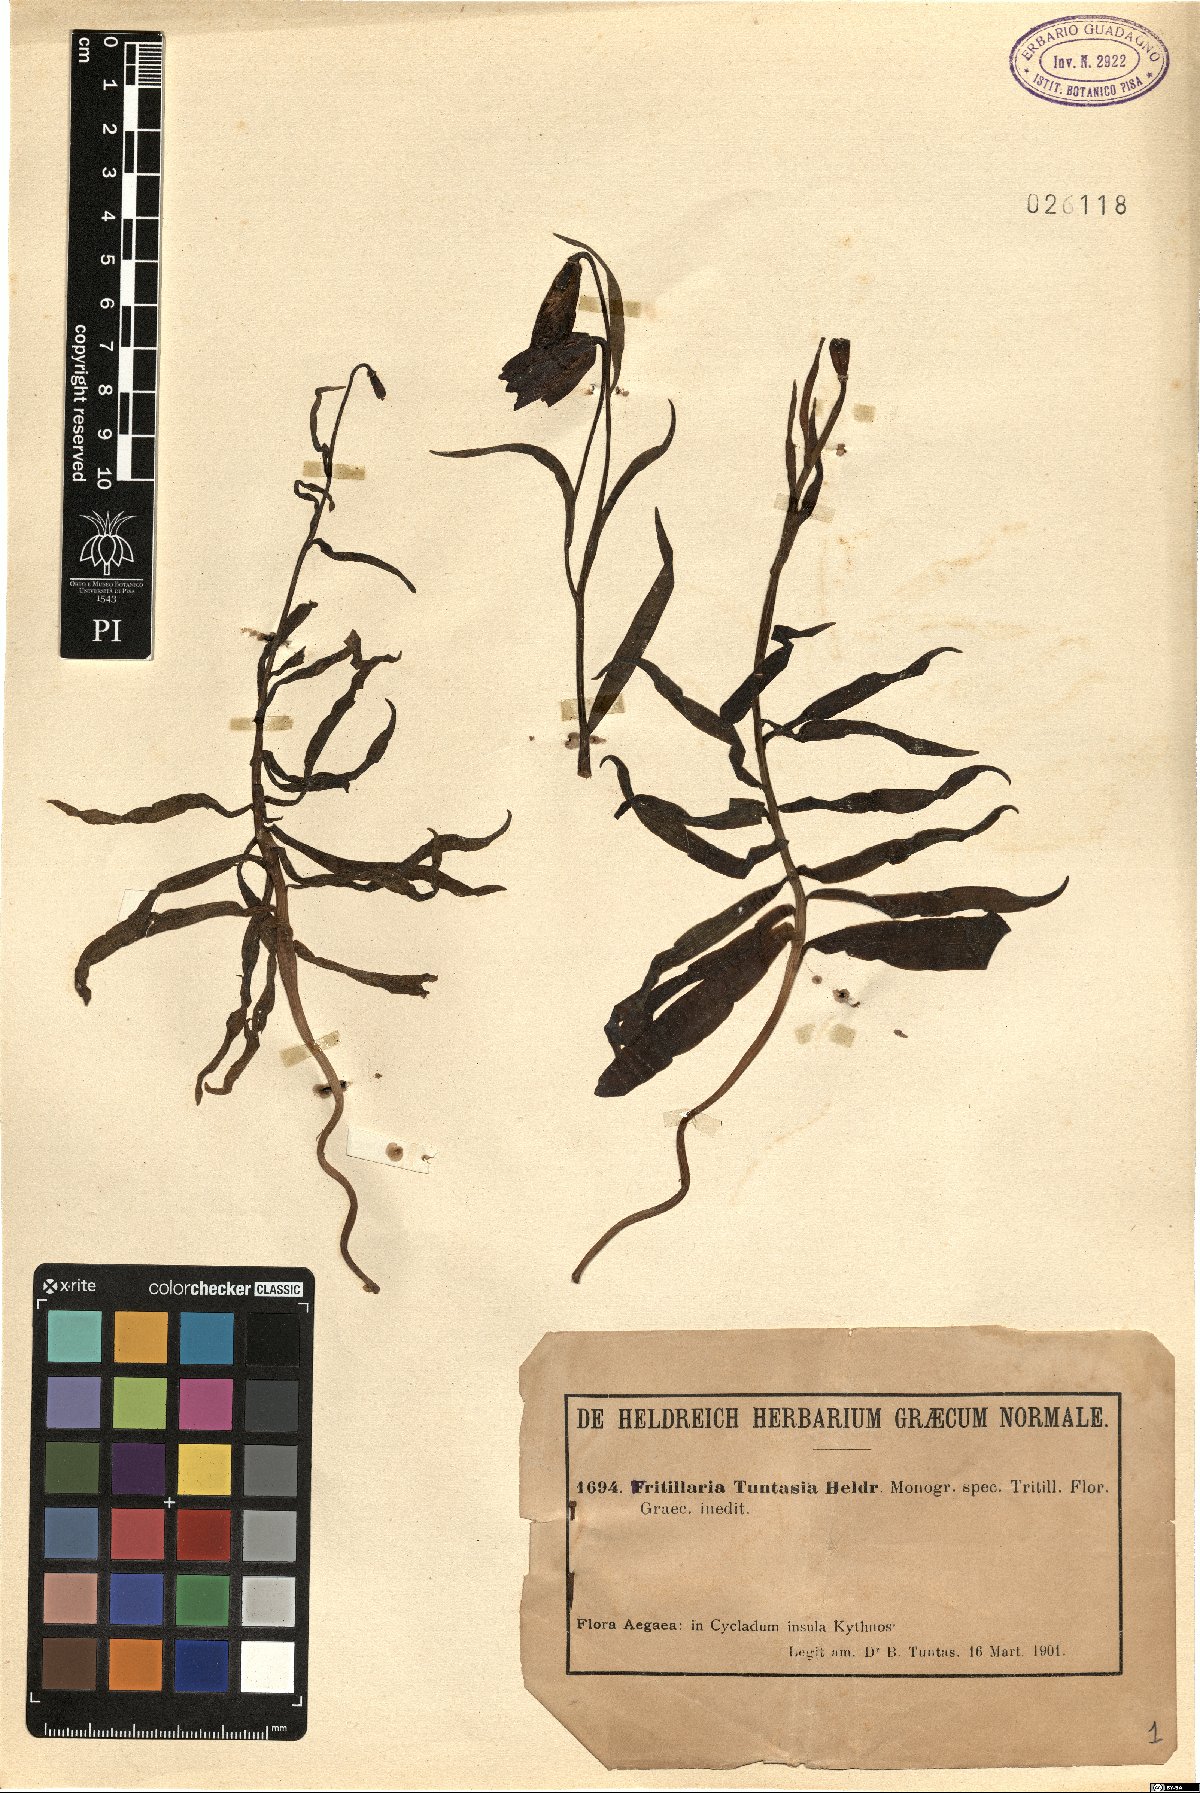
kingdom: Plantae
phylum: Tracheophyta
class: Liliopsida
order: Liliales
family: Liliaceae
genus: Fritillaria
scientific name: Fritillaria obliqua
